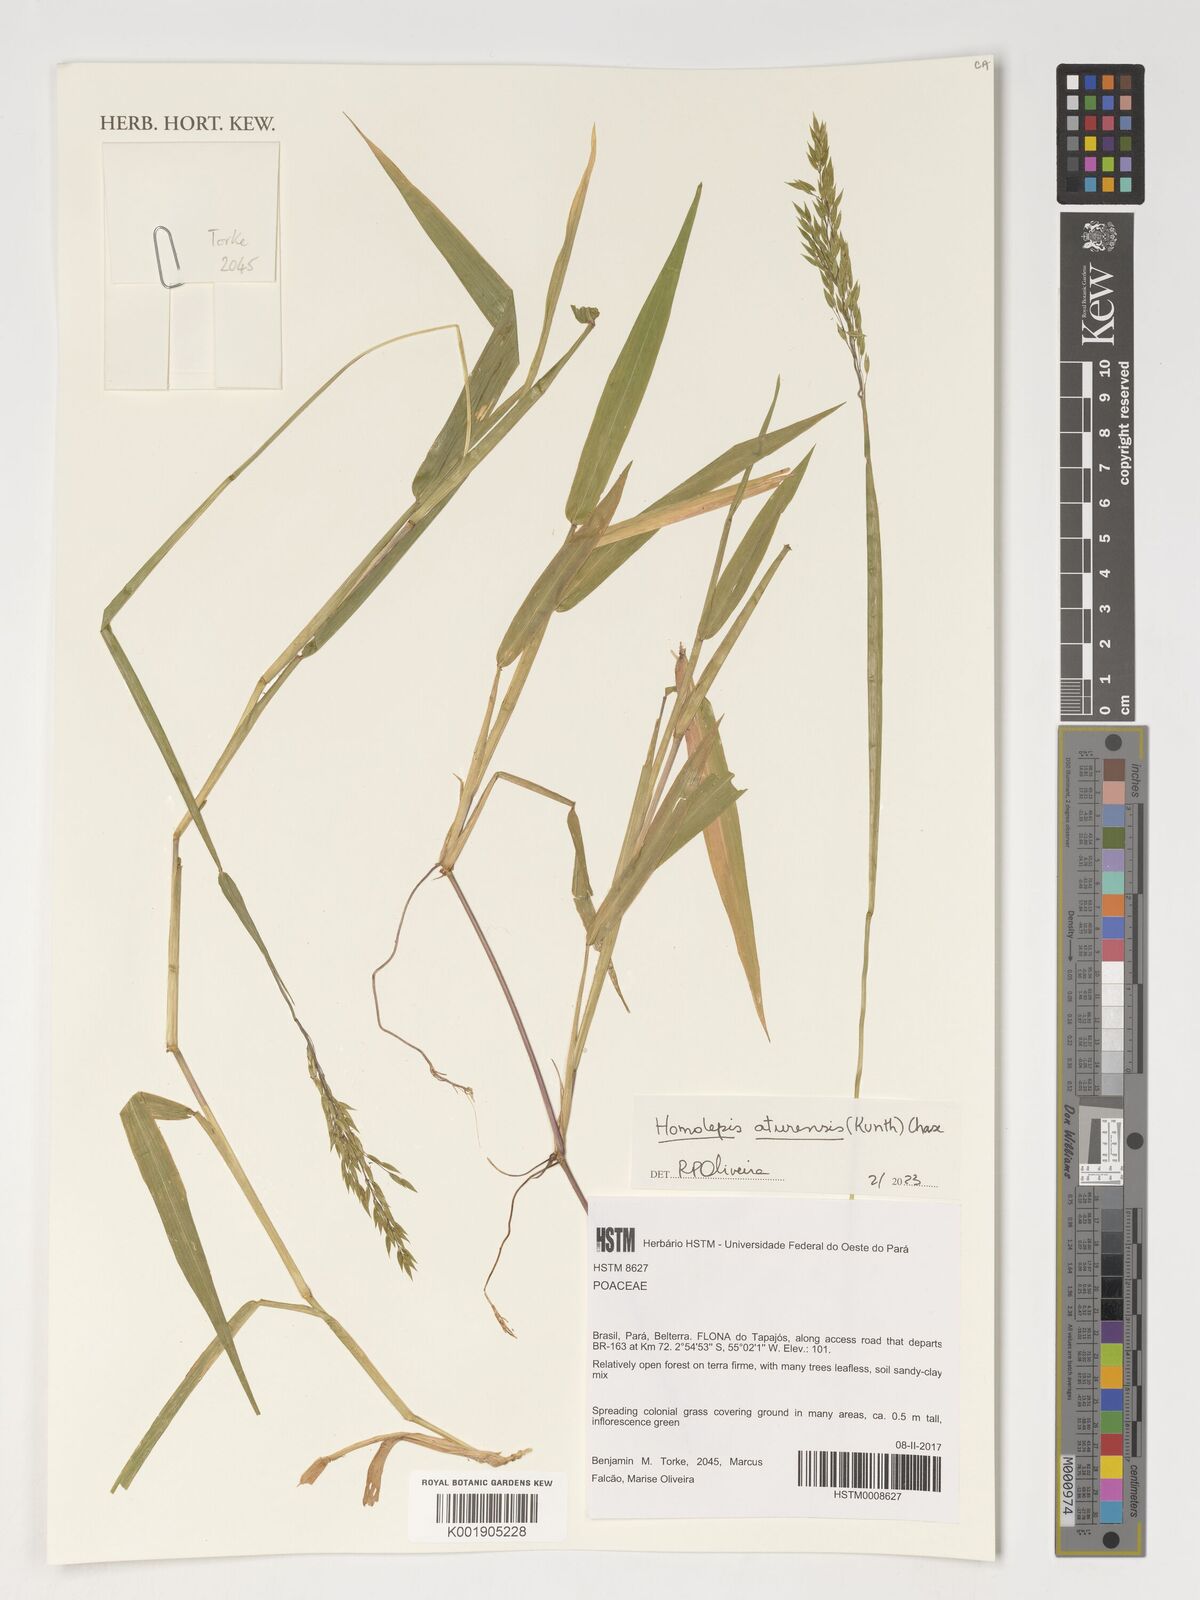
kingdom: Plantae
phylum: Tracheophyta
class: Liliopsida
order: Poales
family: Poaceae
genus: Homolepis
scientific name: Homolepis aturensis
